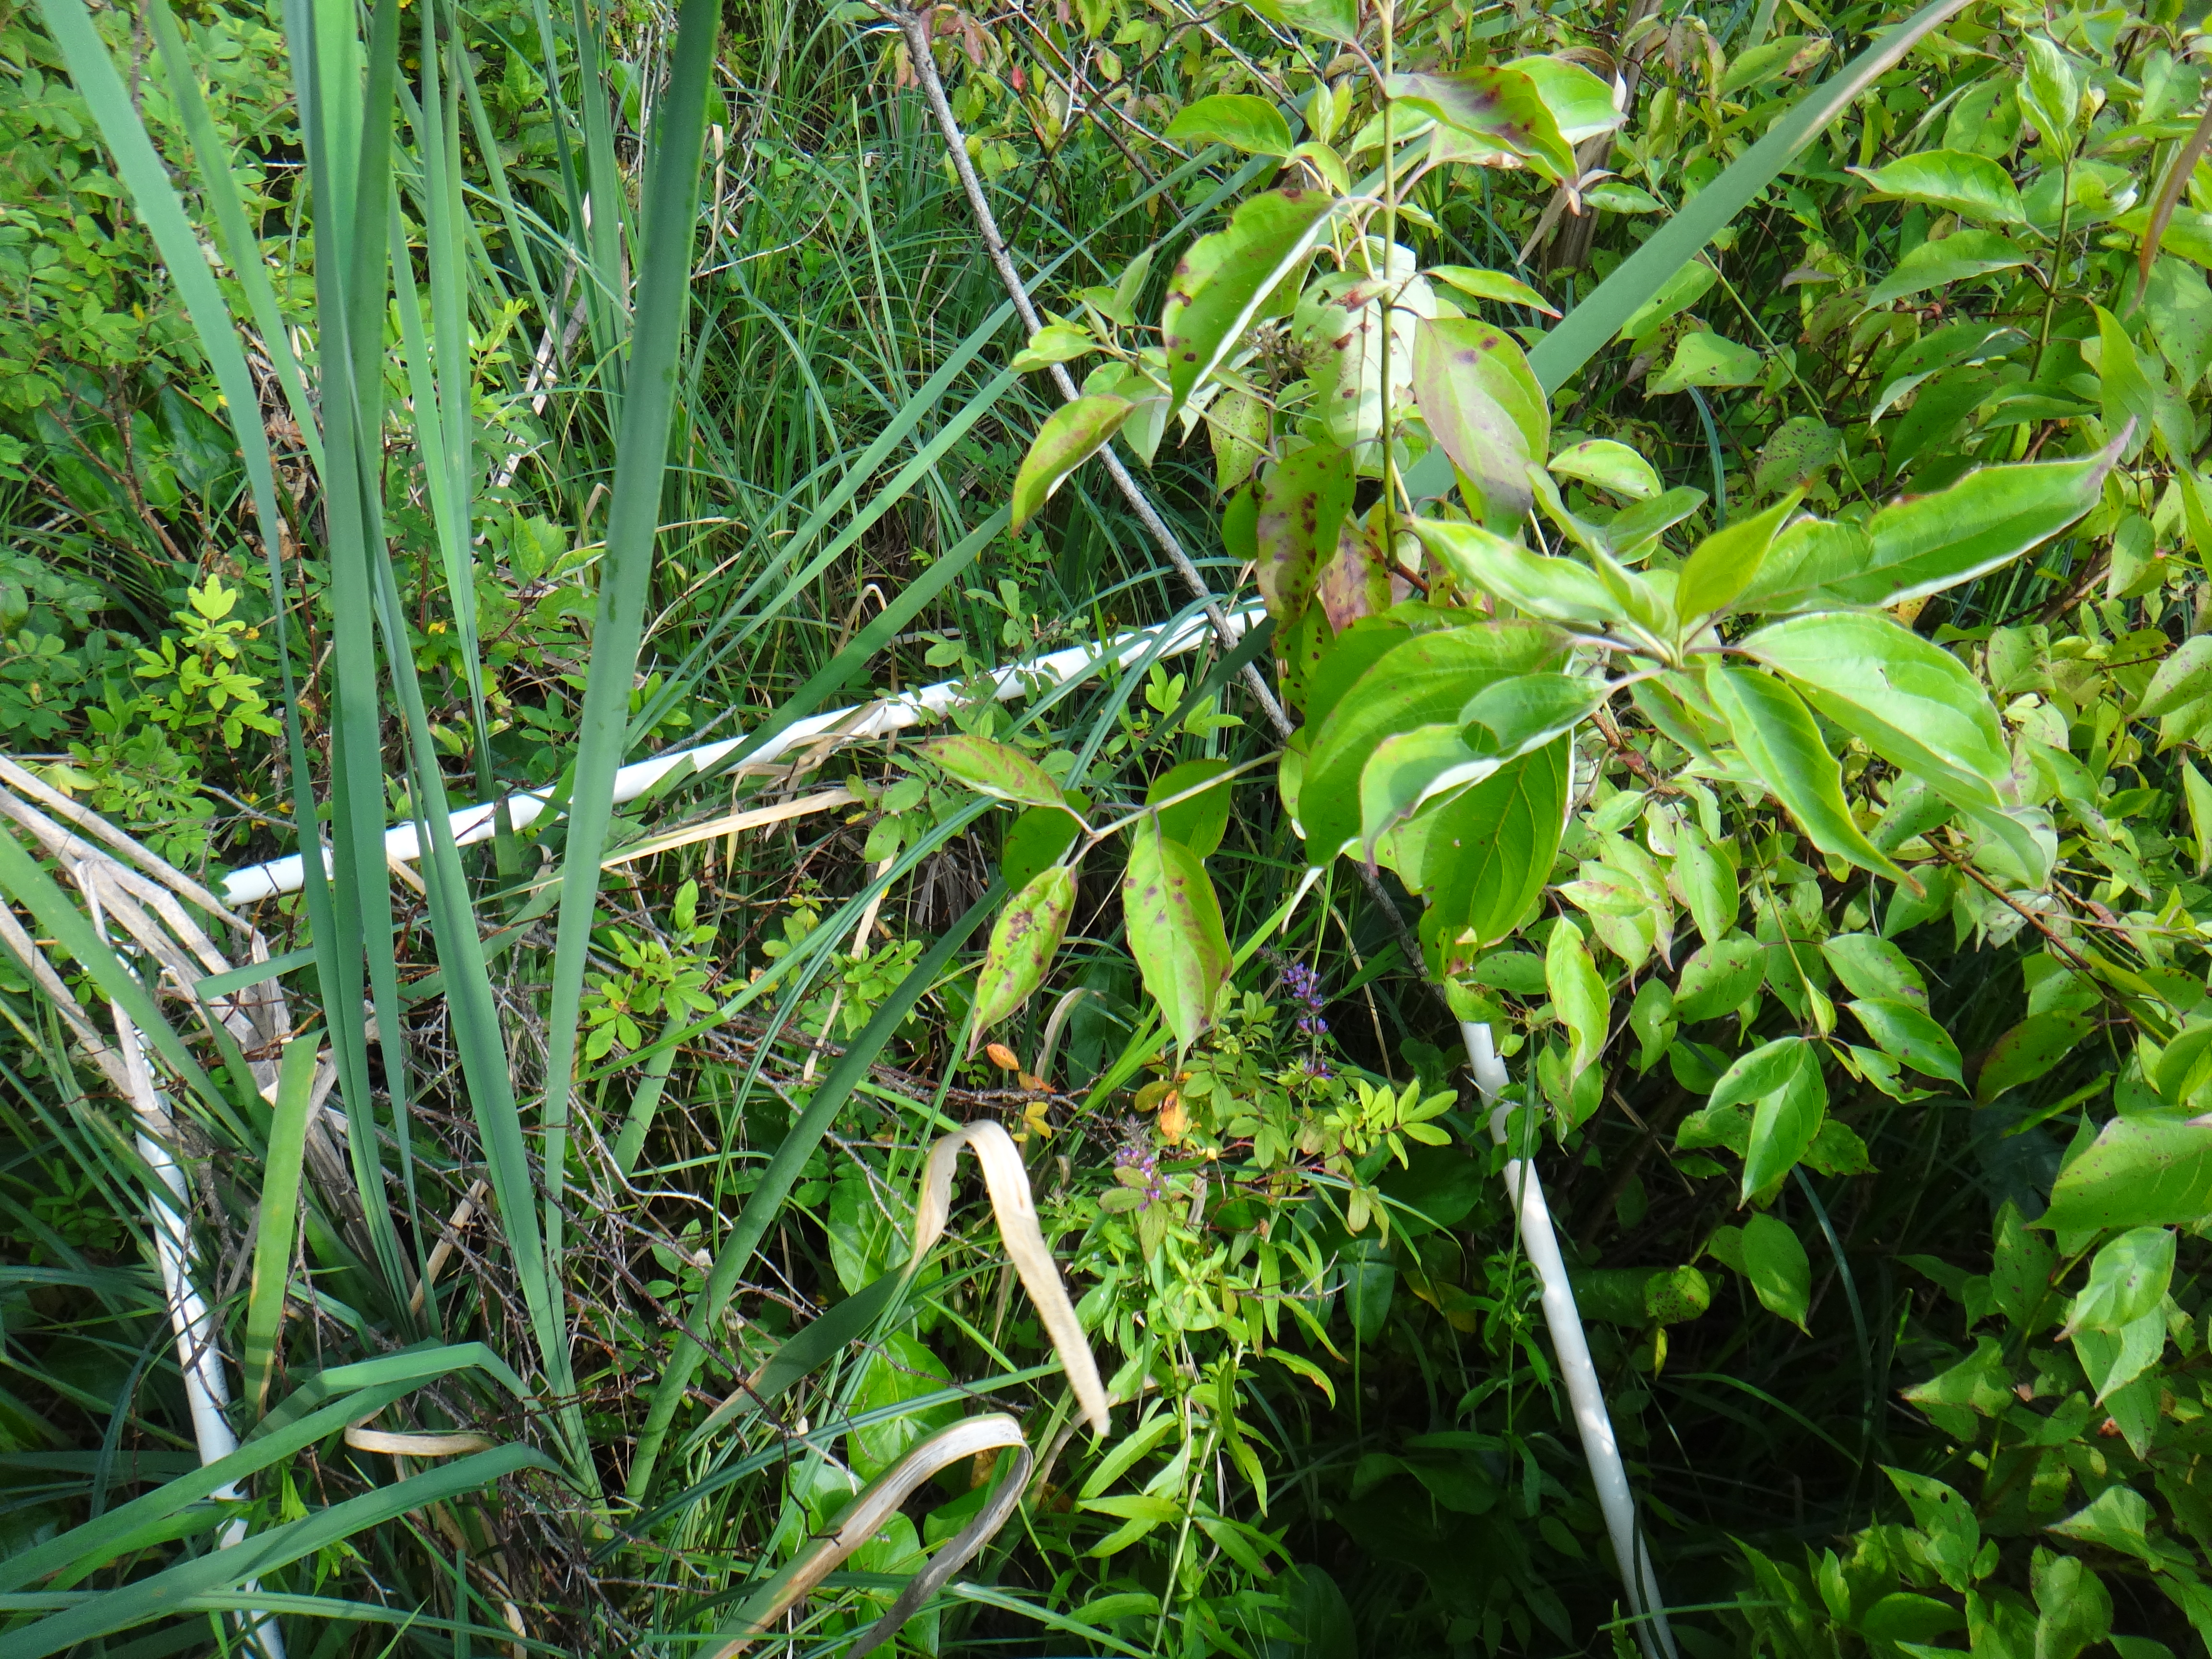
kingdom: Plantae
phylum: Tracheophyta
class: Magnoliopsida
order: Rosales
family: Urticaceae
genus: Pilea
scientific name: Pilea pumila
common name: Clearweed
